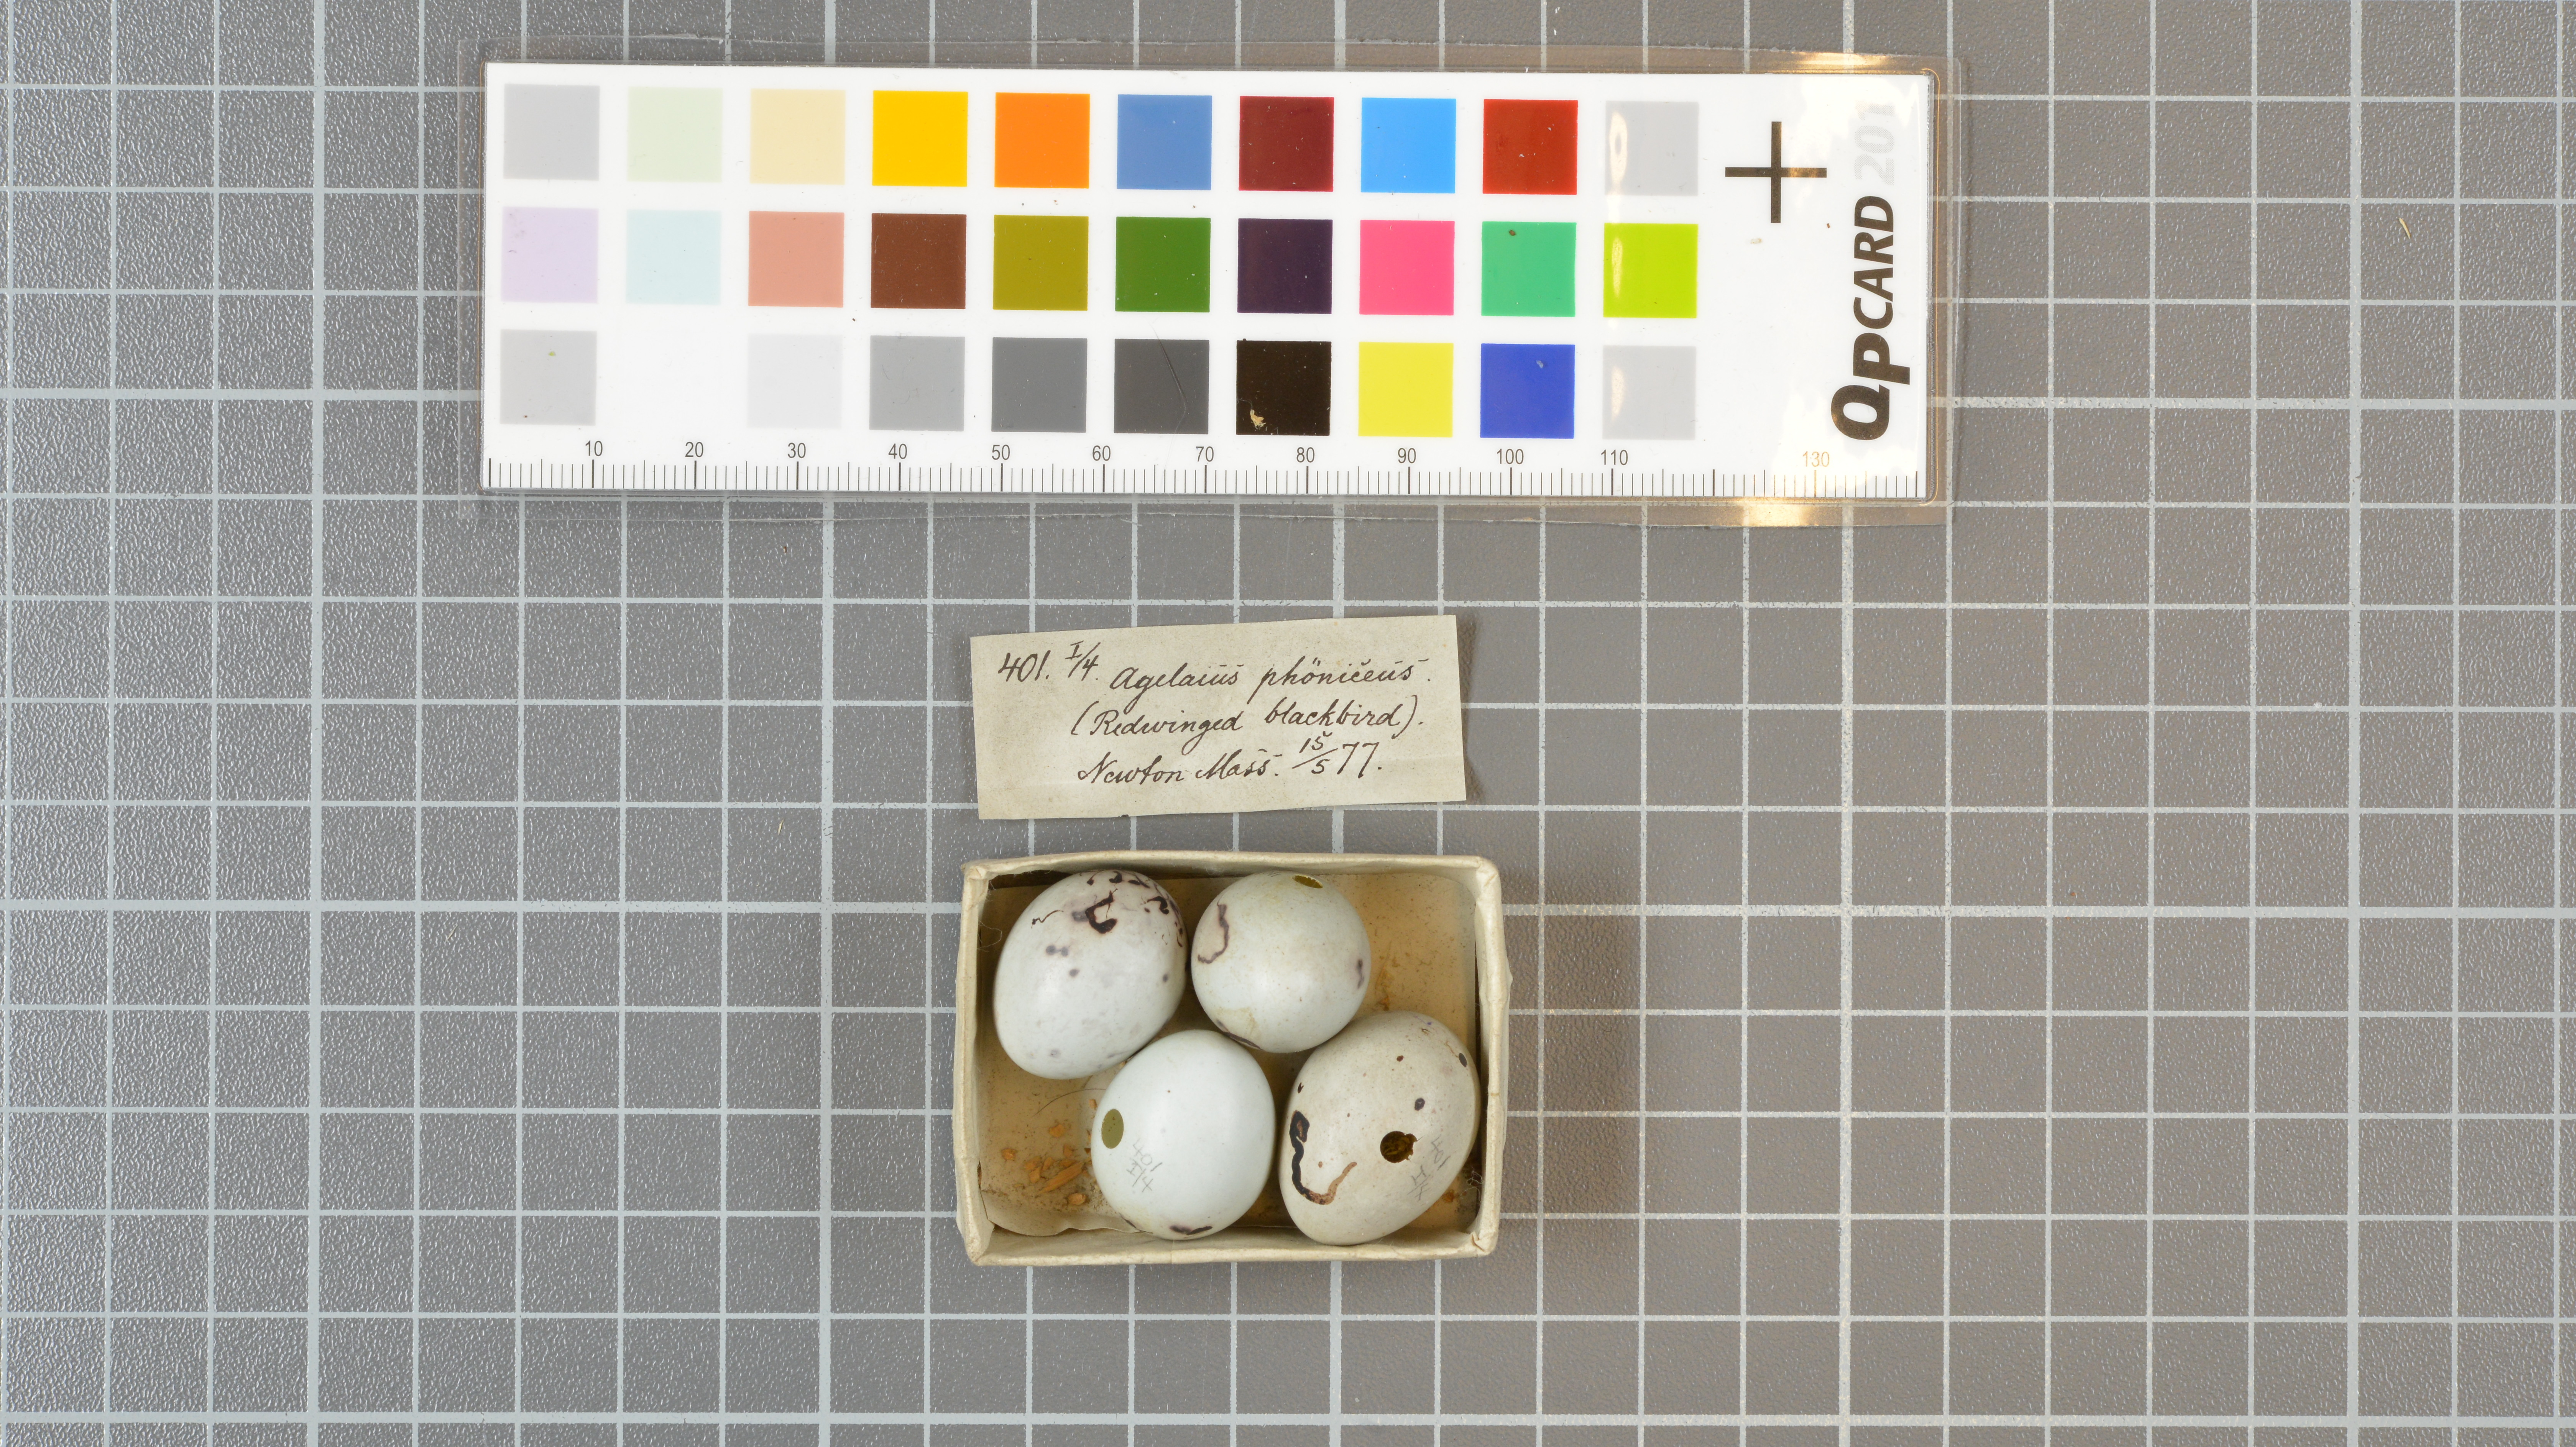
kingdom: Animalia
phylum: Chordata
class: Aves
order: Passeriformes
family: Icteridae
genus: Agelaius
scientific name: Agelaius phoeniceus
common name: Red-winged blackbird
